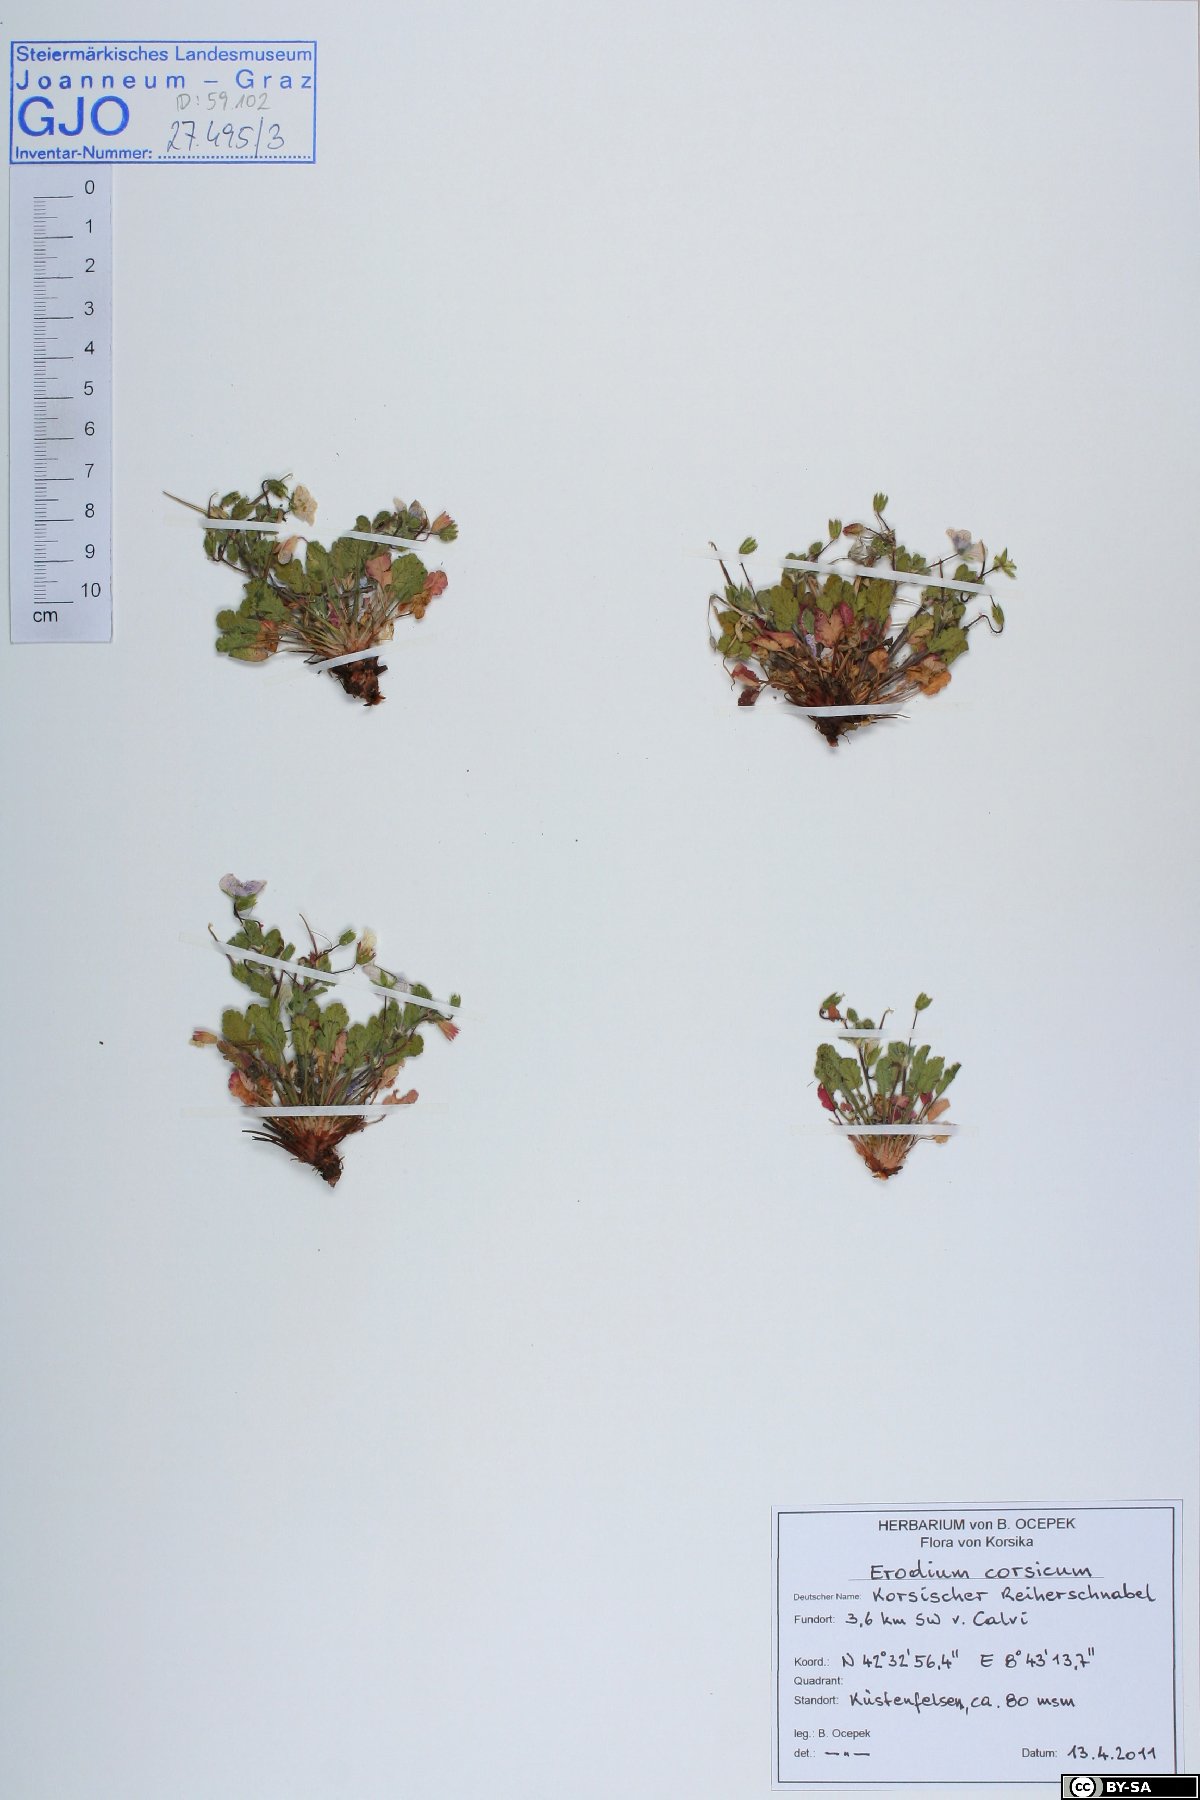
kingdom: Plantae
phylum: Tracheophyta
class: Magnoliopsida
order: Geraniales
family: Geraniaceae
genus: Erodium
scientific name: Erodium corsicum
